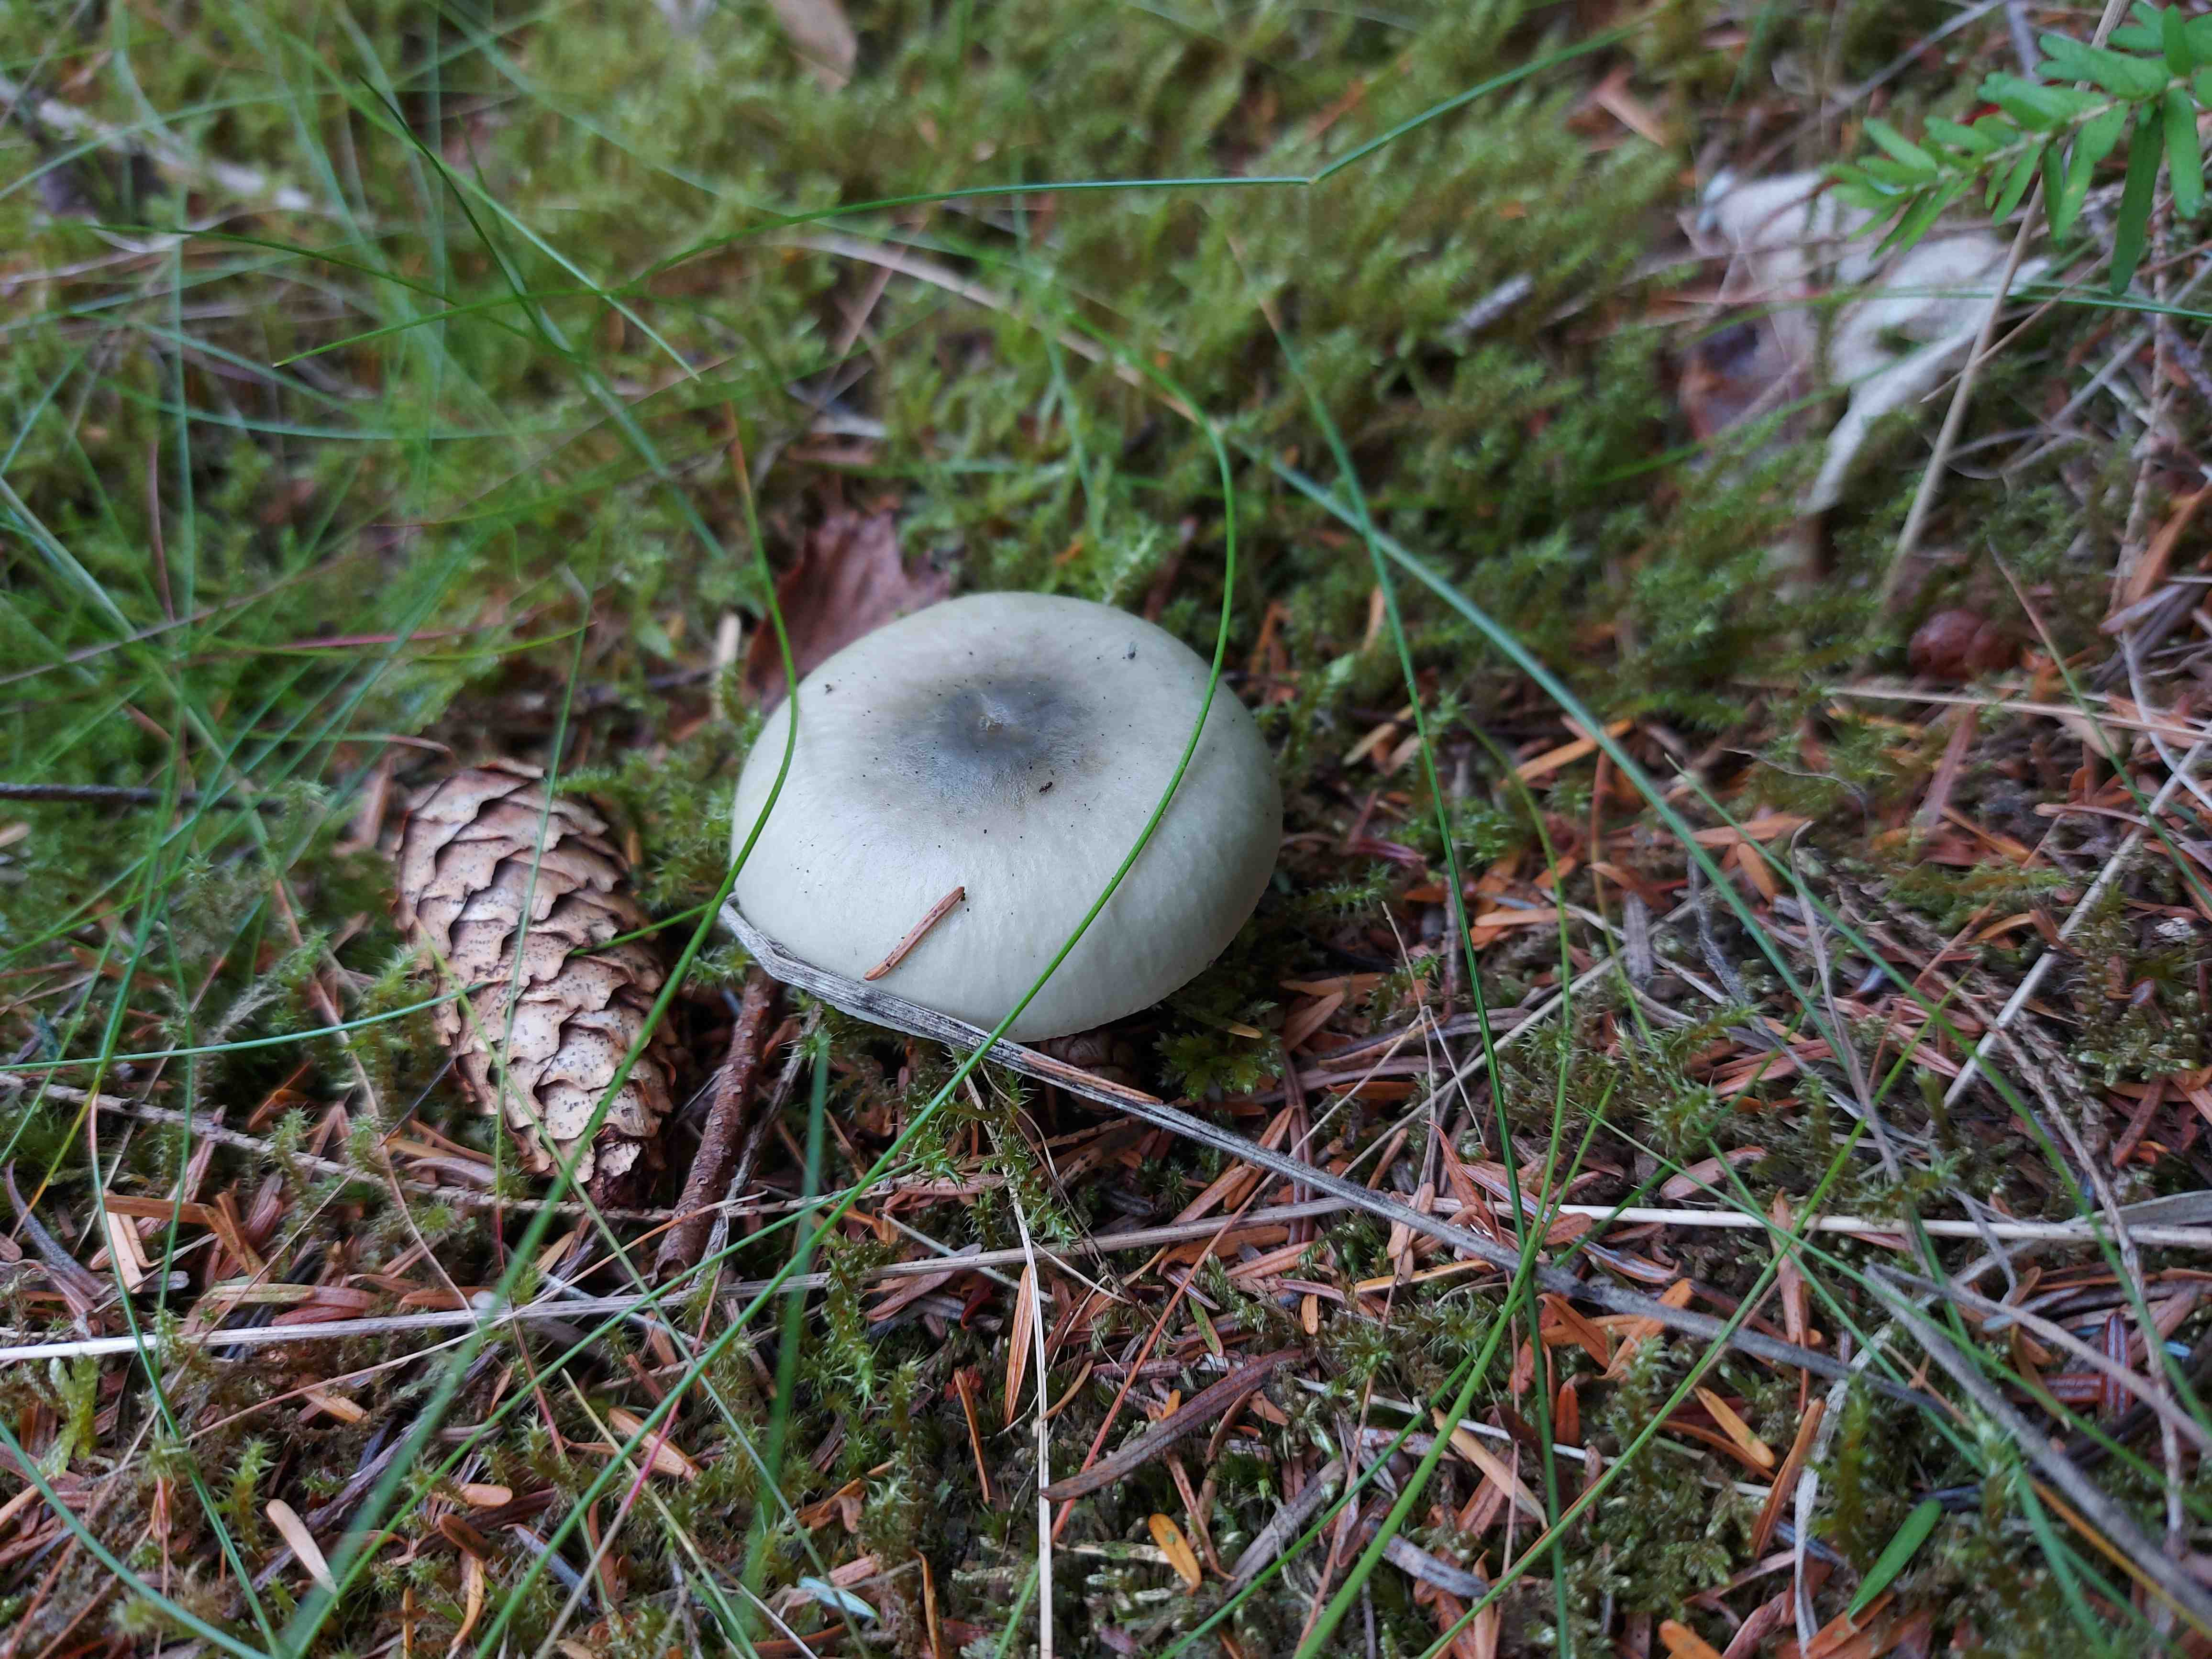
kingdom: Fungi
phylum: Basidiomycota
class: Agaricomycetes
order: Russulales
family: Russulaceae
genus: Russula
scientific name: Russula aeruginea
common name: græsgrøn skørhat
